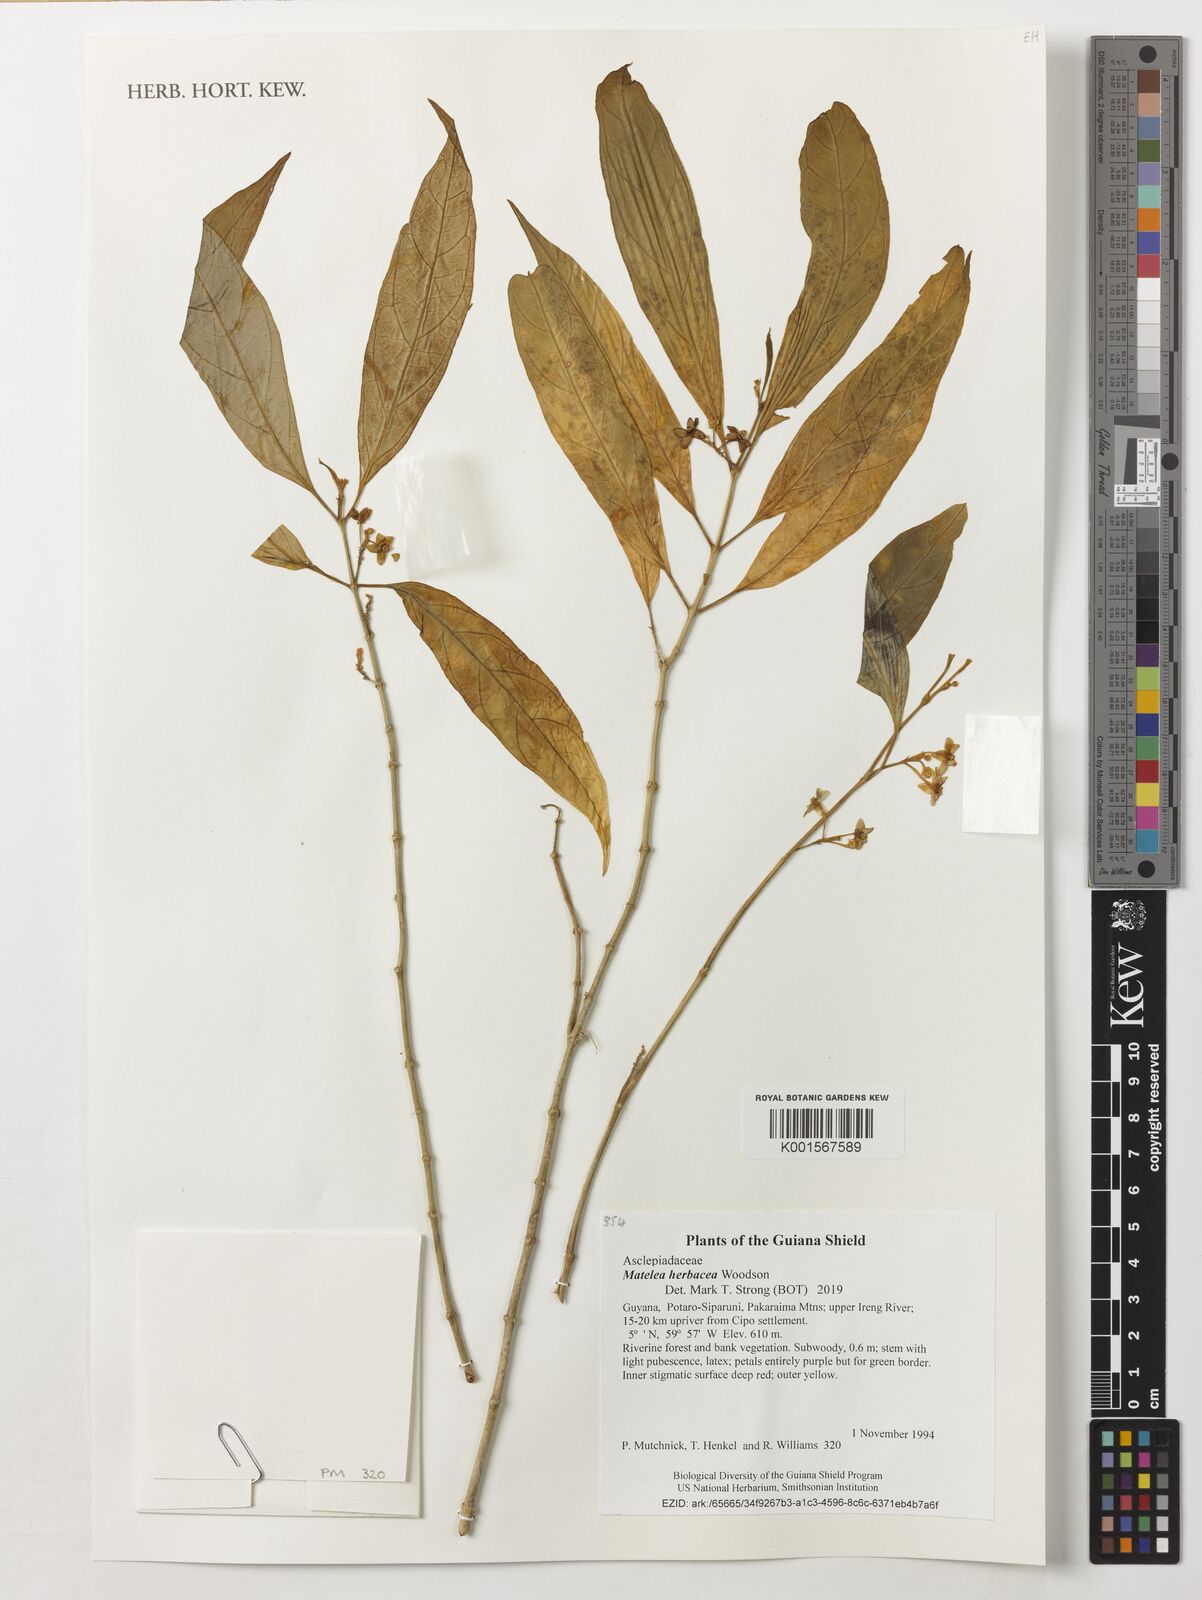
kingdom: Plantae
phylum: Tracheophyta
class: Magnoliopsida
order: Gentianales
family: Apocynaceae
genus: Matelea
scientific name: Matelea herbacea
